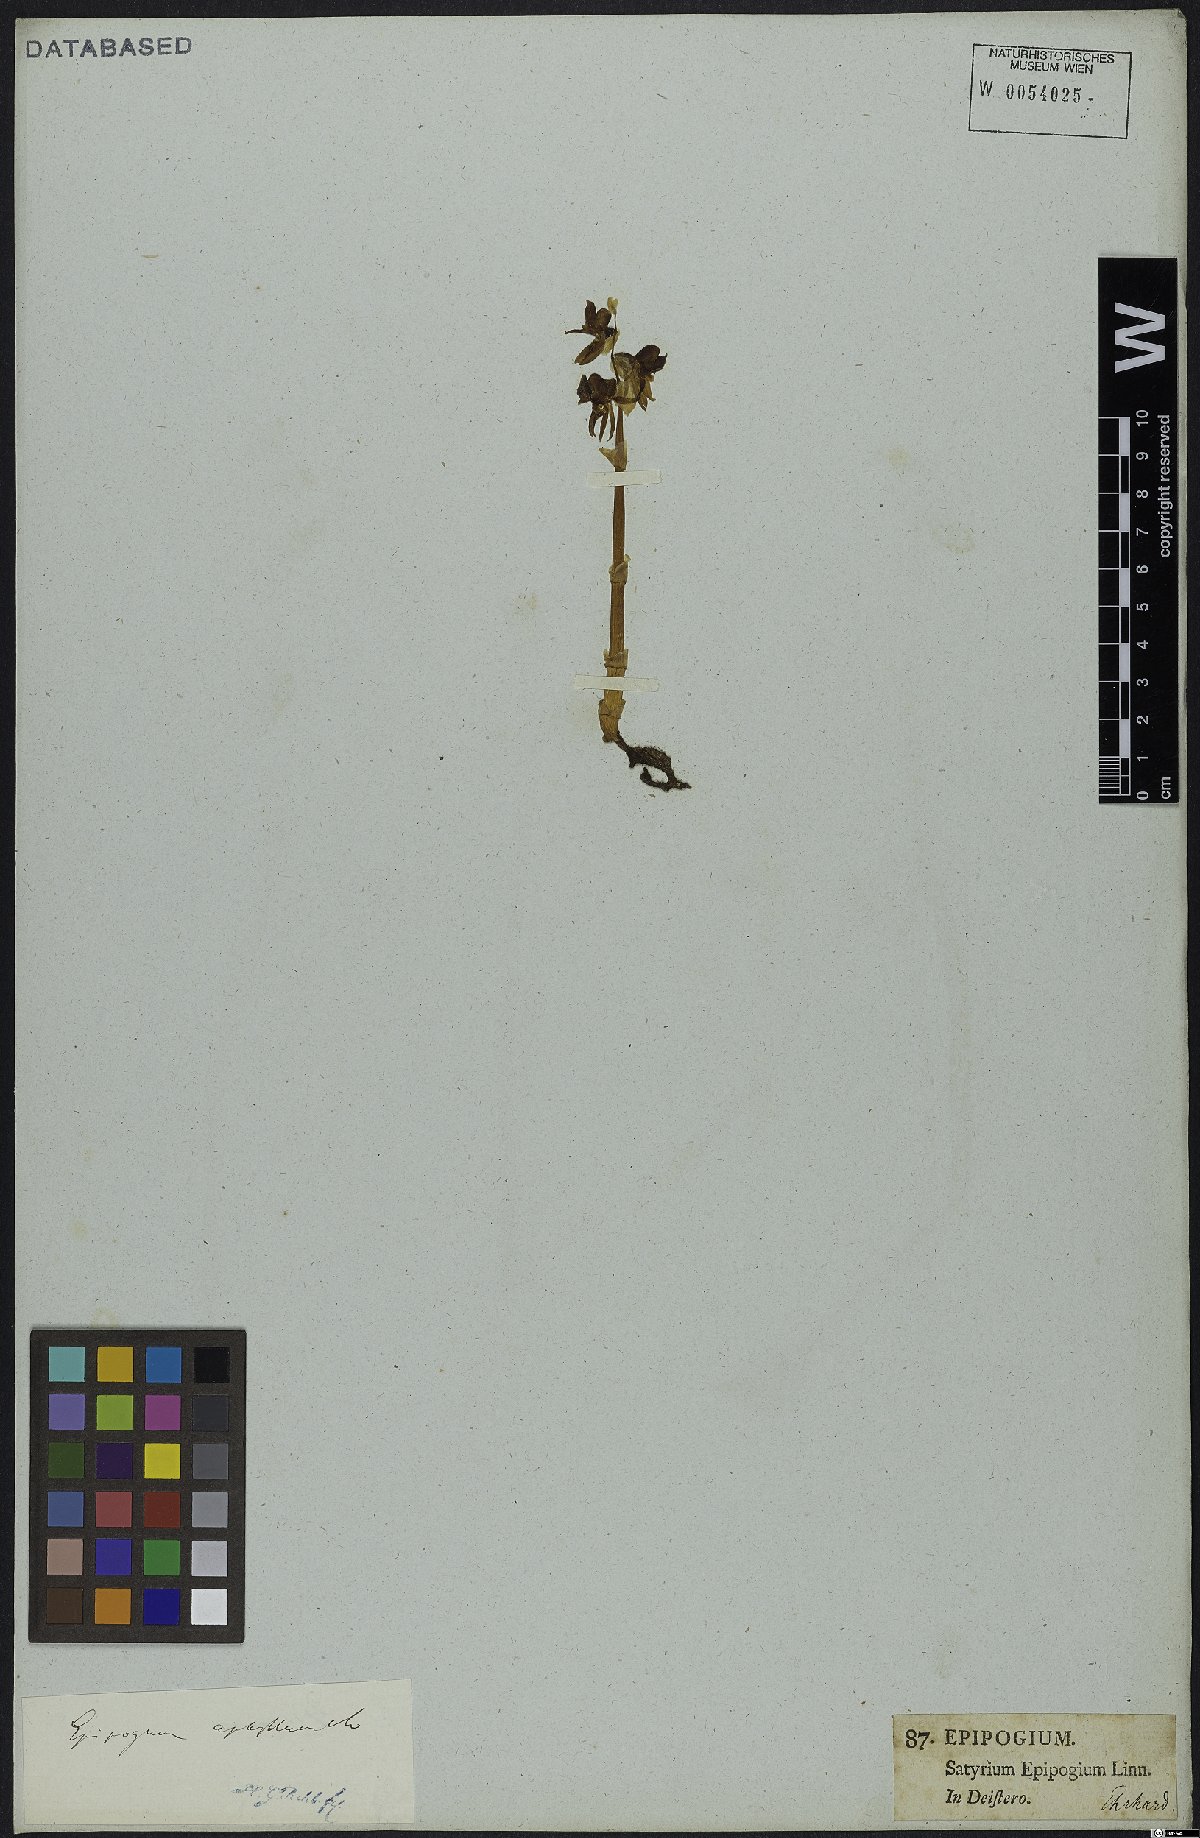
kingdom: Plantae
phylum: Tracheophyta
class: Liliopsida
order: Asparagales
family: Orchidaceae
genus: Epipogium
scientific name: Epipogium aphyllum
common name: Ghost orchid
